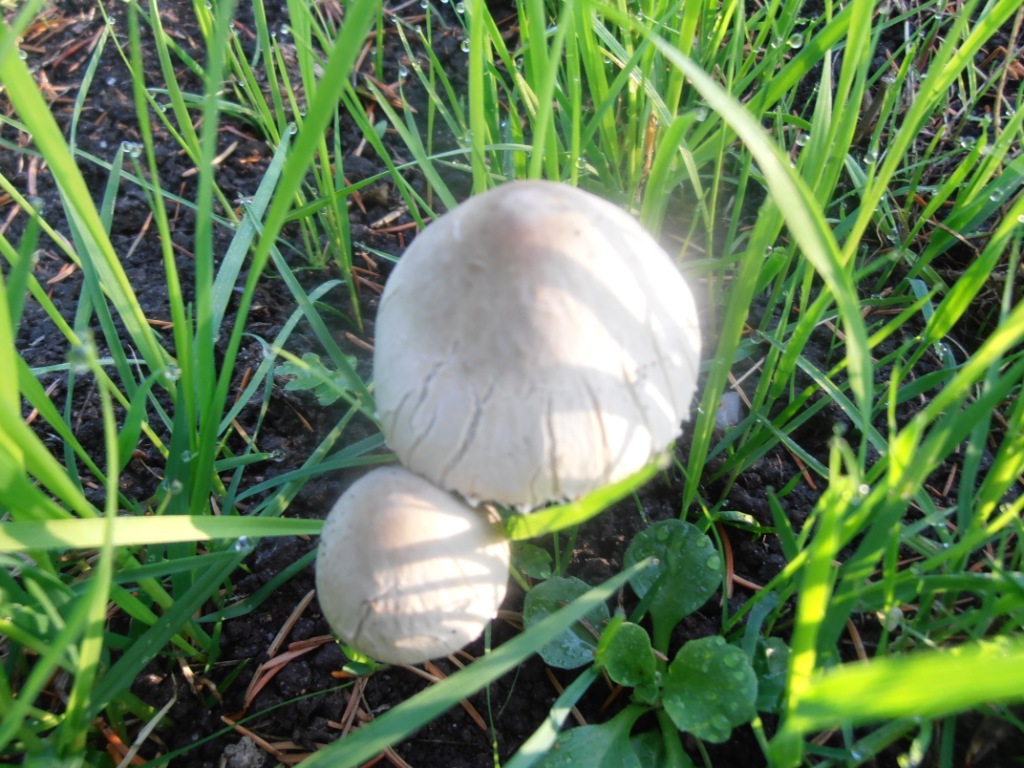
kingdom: Fungi
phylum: Basidiomycota
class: Agaricomycetes
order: Agaricales
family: Bolbitiaceae
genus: Panaeolus
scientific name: Panaeolus papilionaceus
